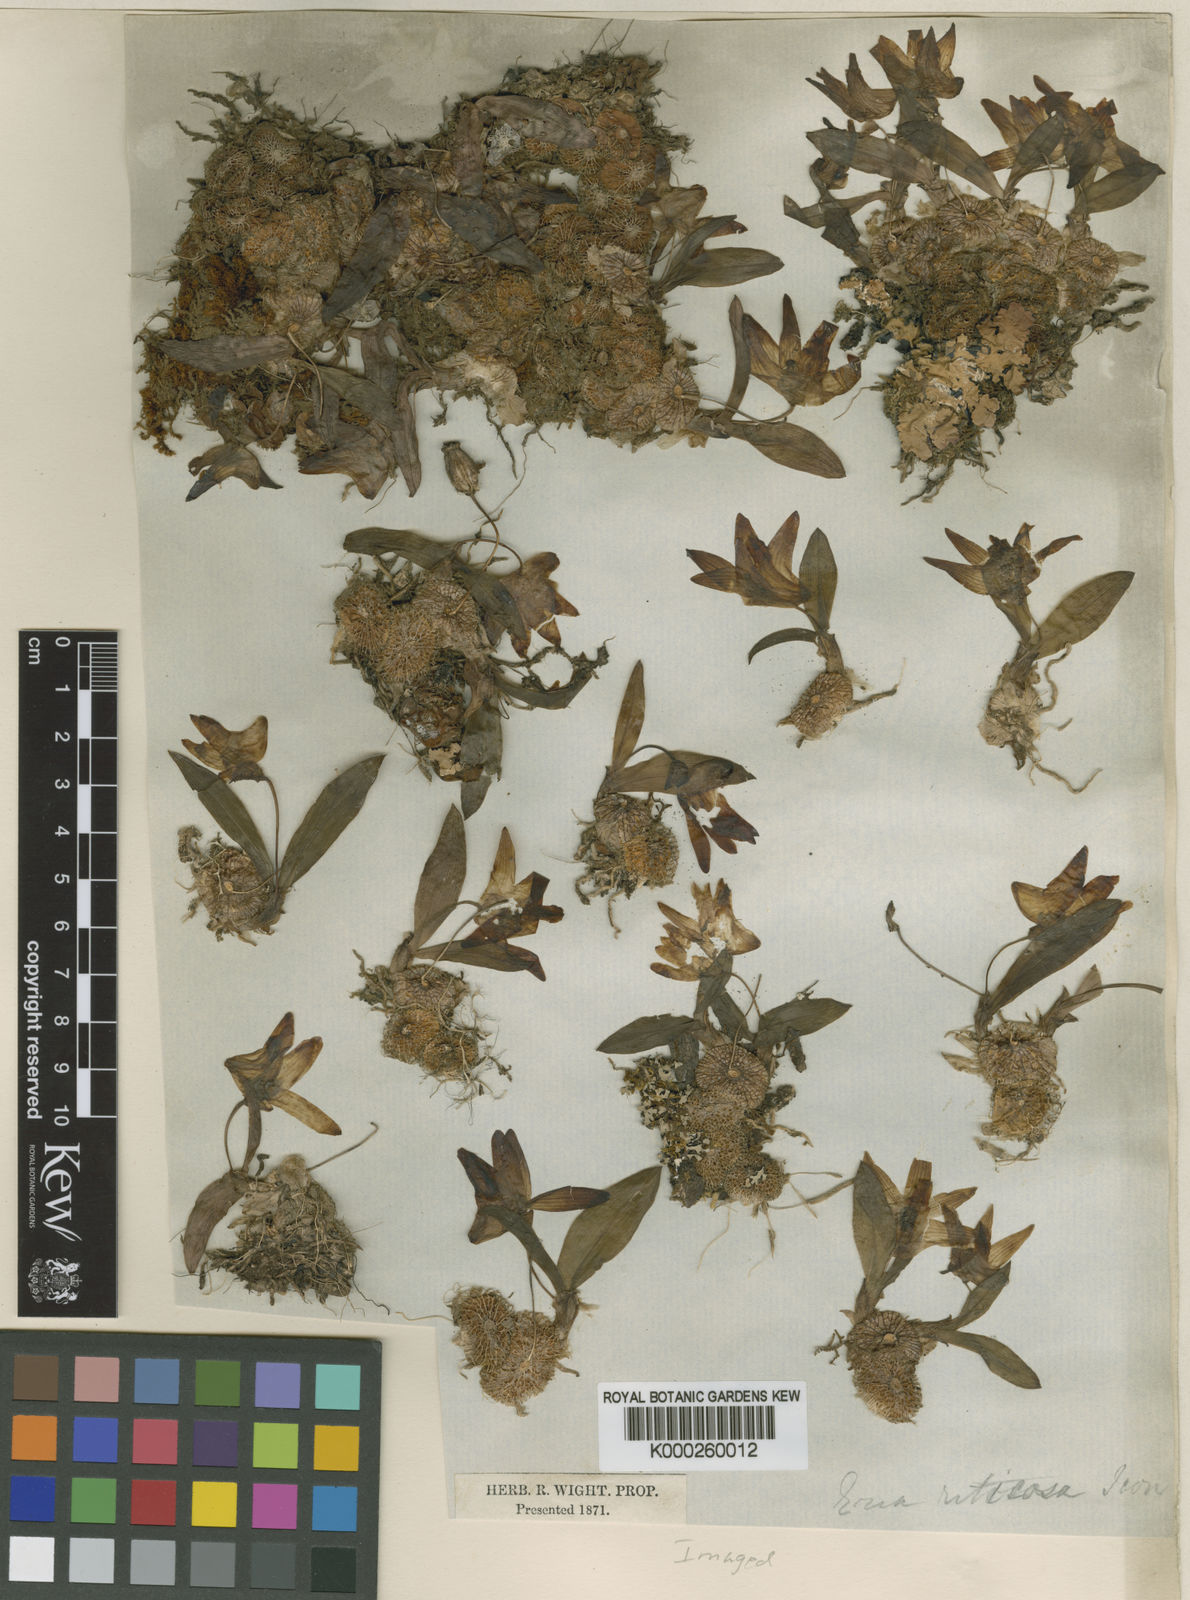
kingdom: Plantae
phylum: Tracheophyta
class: Liliopsida
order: Asparagales
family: Orchidaceae
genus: Porpax
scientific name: Porpax braccata
